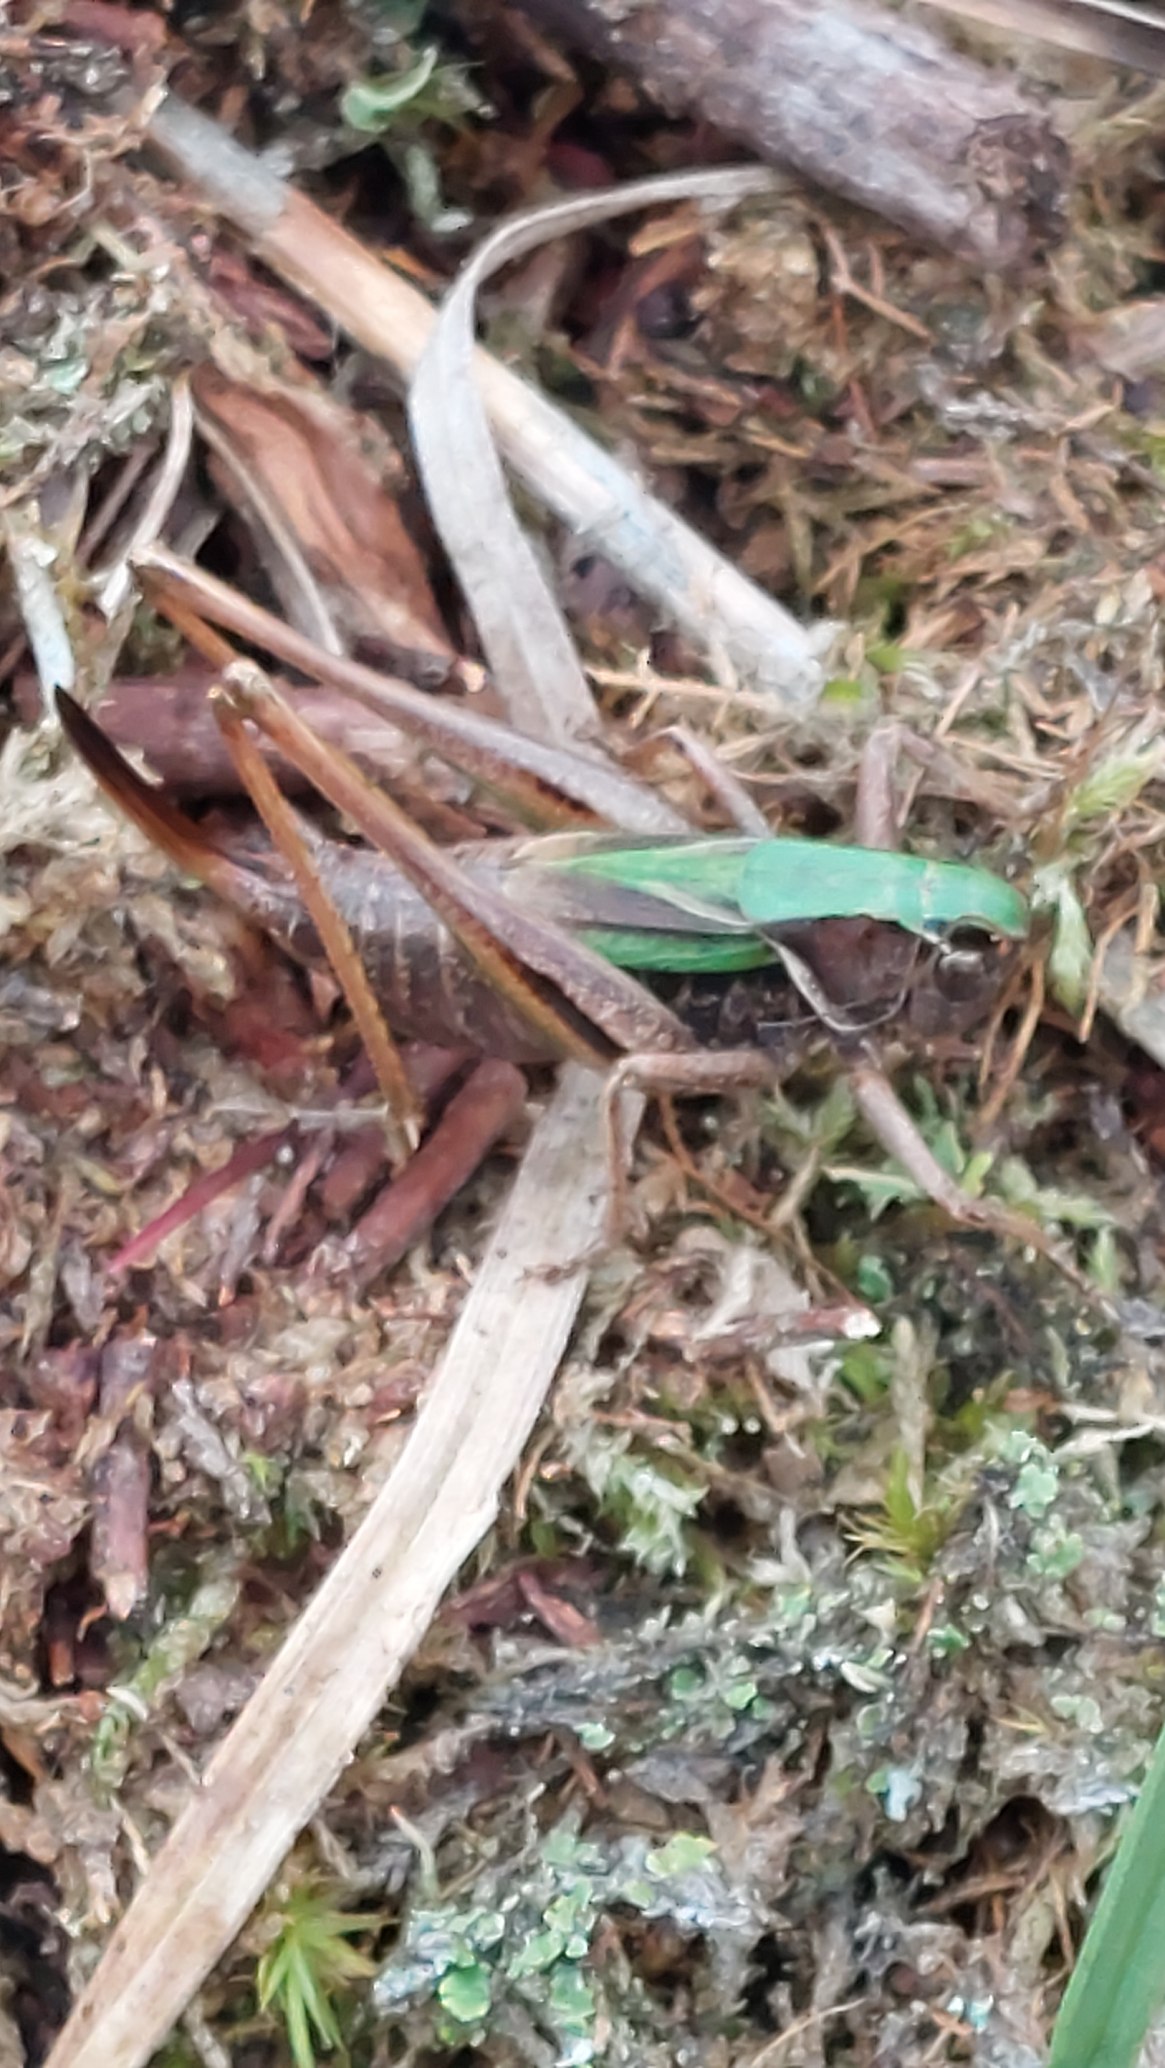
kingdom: Animalia
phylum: Arthropoda
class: Insecta
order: Orthoptera
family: Tettigoniidae
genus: Metrioptera
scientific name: Metrioptera brachyptera
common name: Hedegræshoppe
